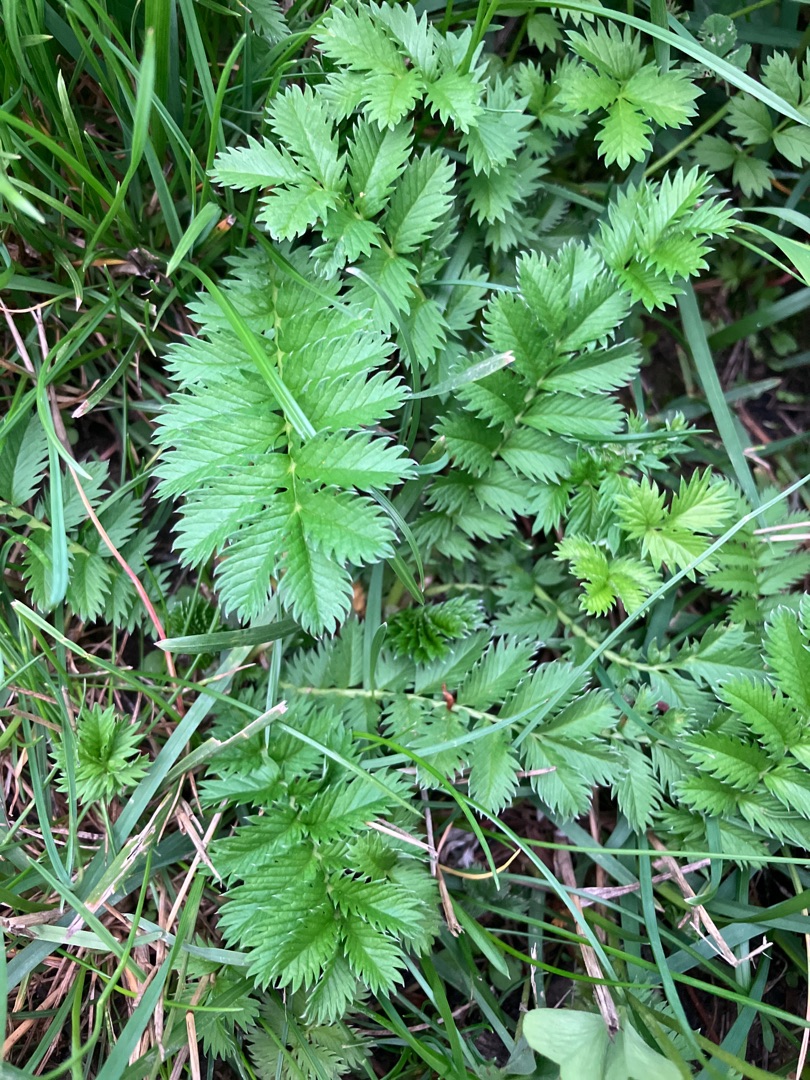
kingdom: Plantae
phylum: Tracheophyta
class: Magnoliopsida
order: Rosales
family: Rosaceae
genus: Argentina
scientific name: Argentina anserina
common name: Gåsepotentil
